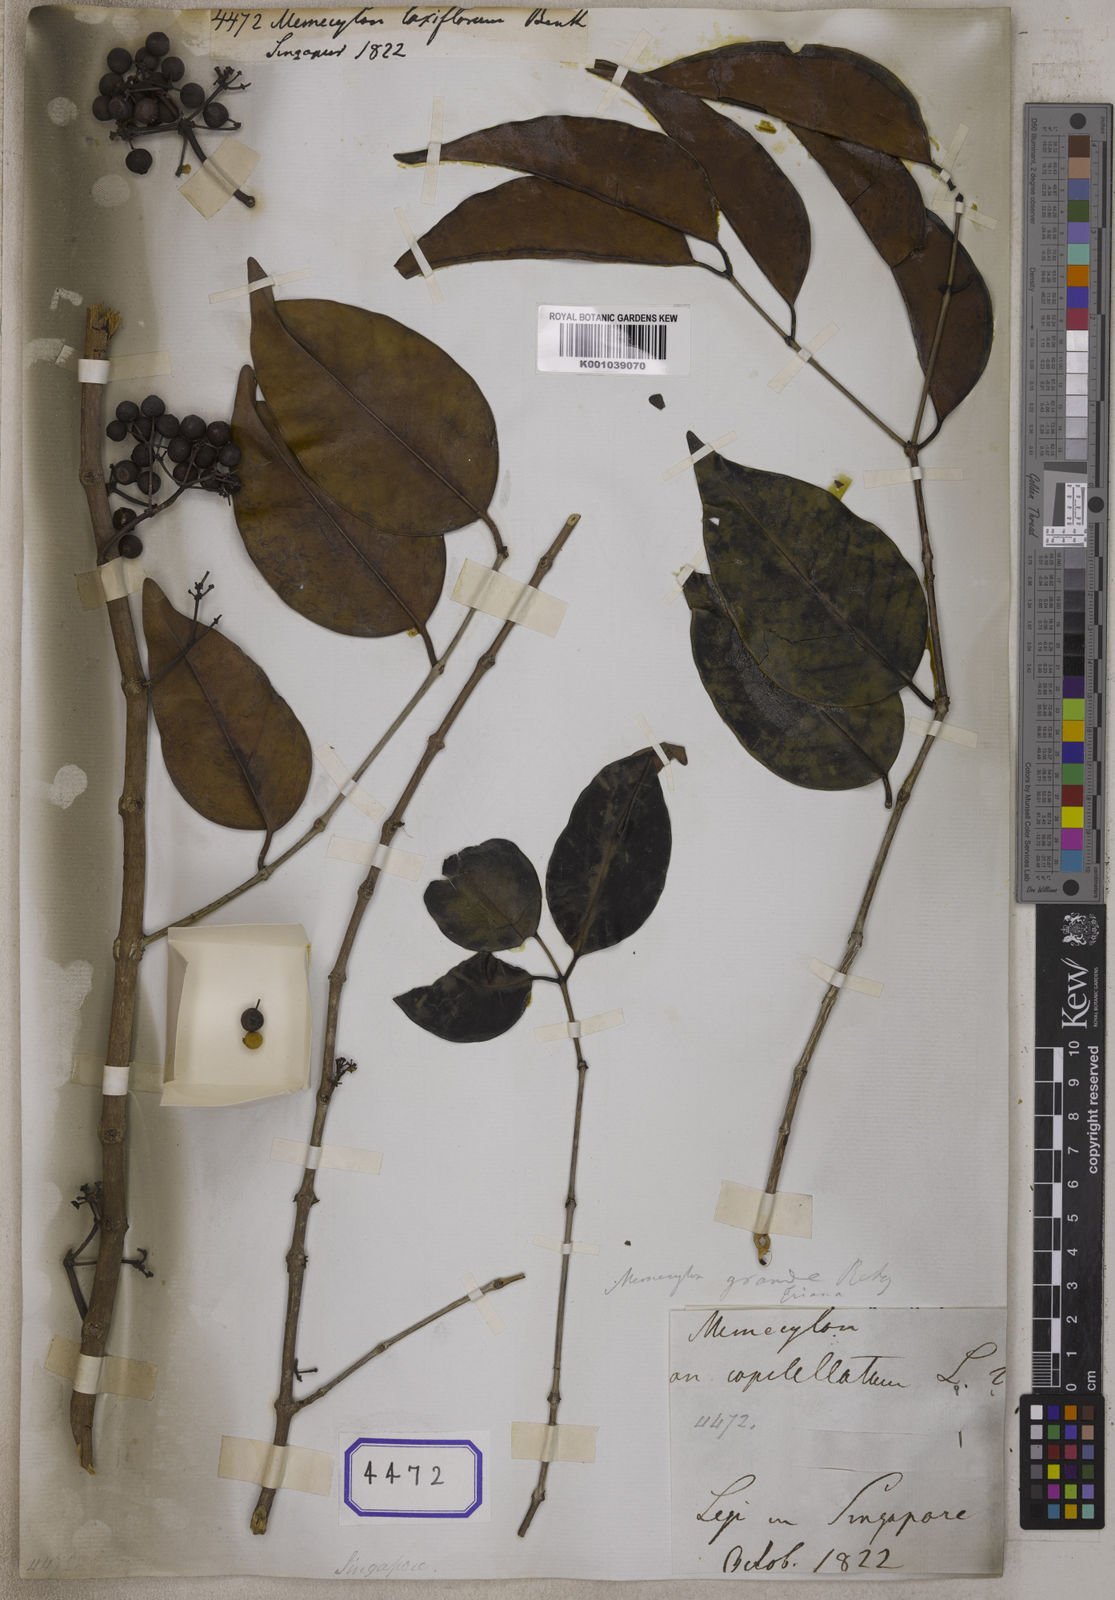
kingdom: Plantae
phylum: Tracheophyta
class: Magnoliopsida
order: Myrtales
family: Melastomataceae
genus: Memecylon
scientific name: Memecylon
